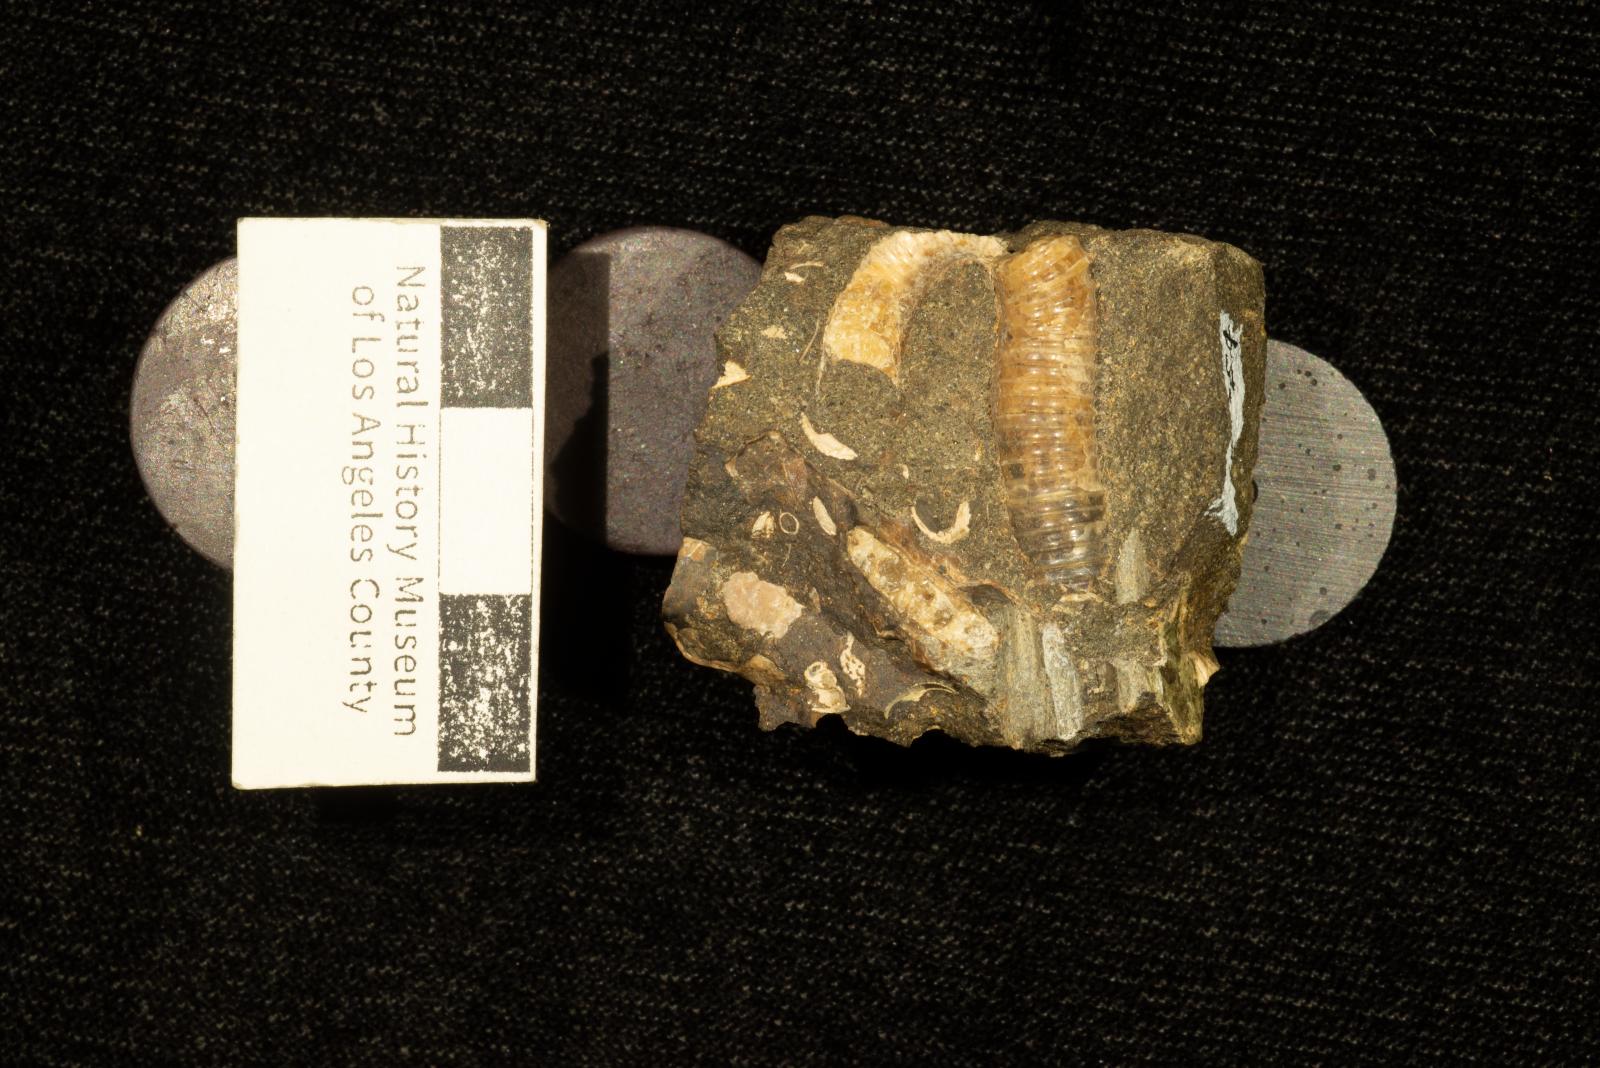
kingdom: Animalia
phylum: Mollusca
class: Cephalopoda
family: Diplomoceratidae
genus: Scalarites
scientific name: Scalarites mihoensis
